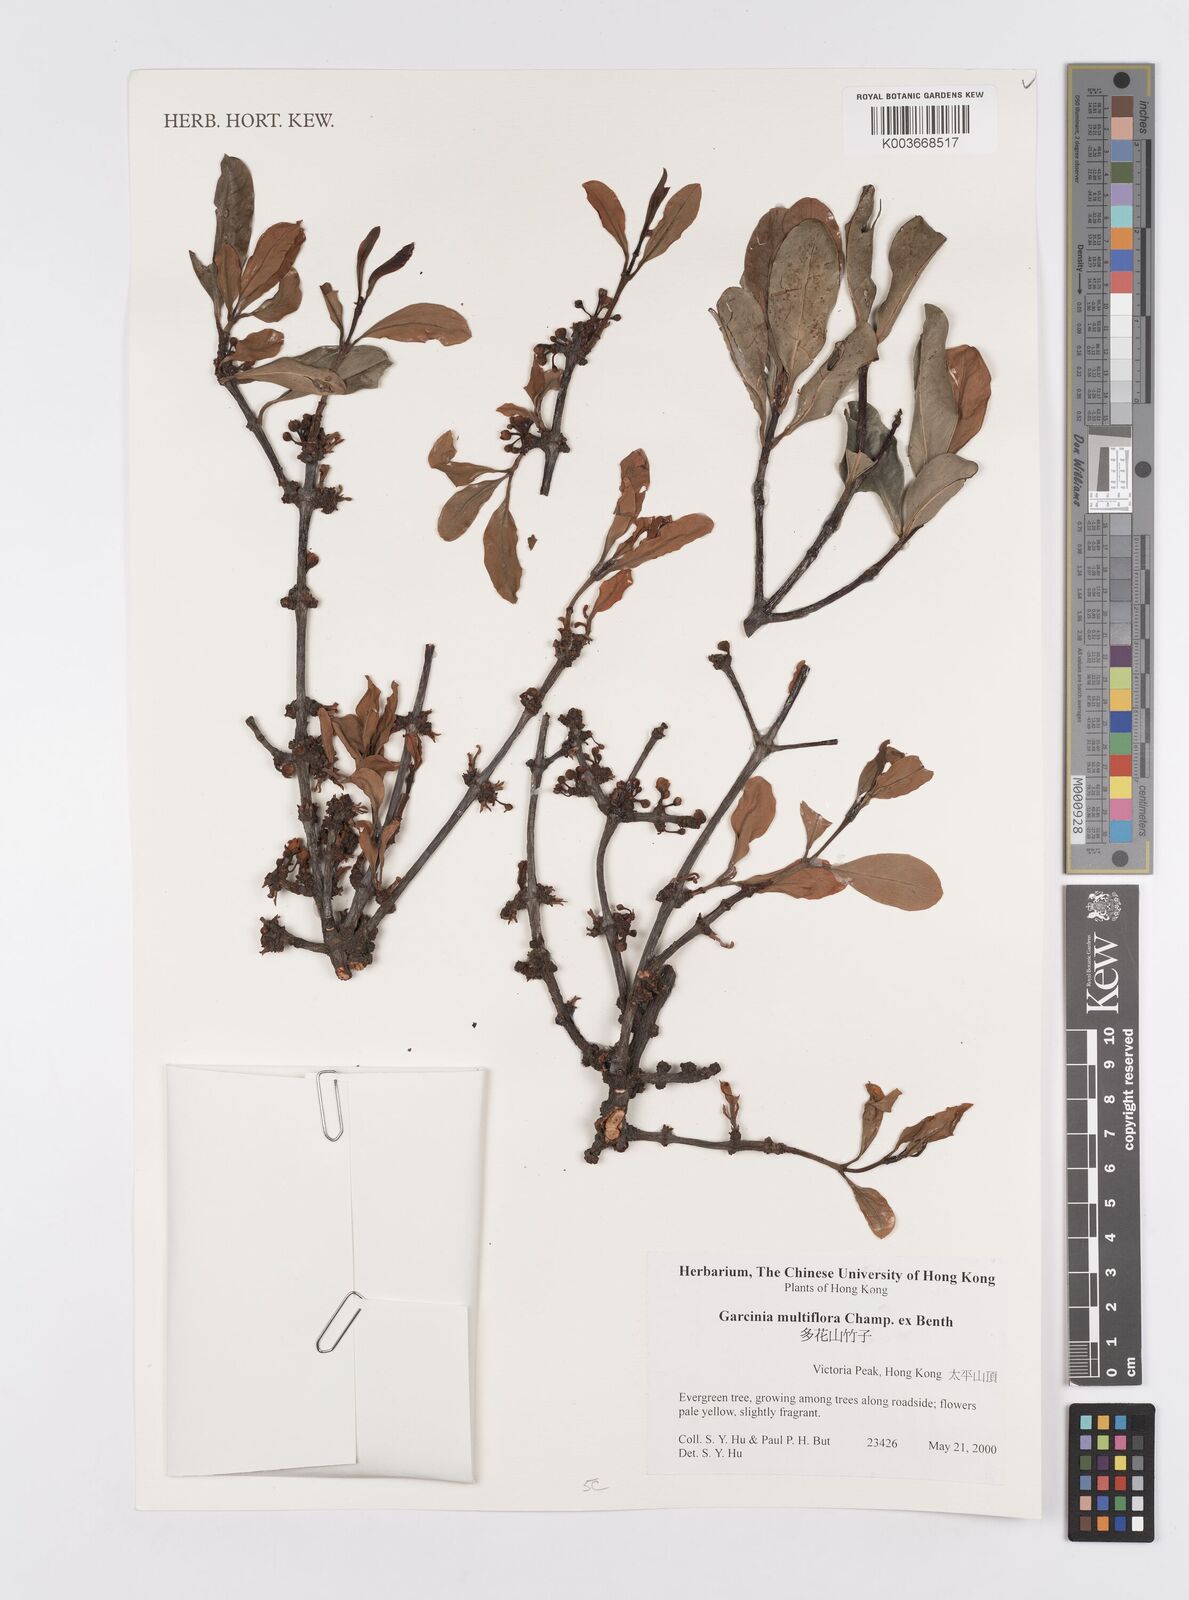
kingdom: Plantae
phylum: Tracheophyta
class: Magnoliopsida
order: Malpighiales
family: Clusiaceae
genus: Garcinia
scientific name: Garcinia multiflora
